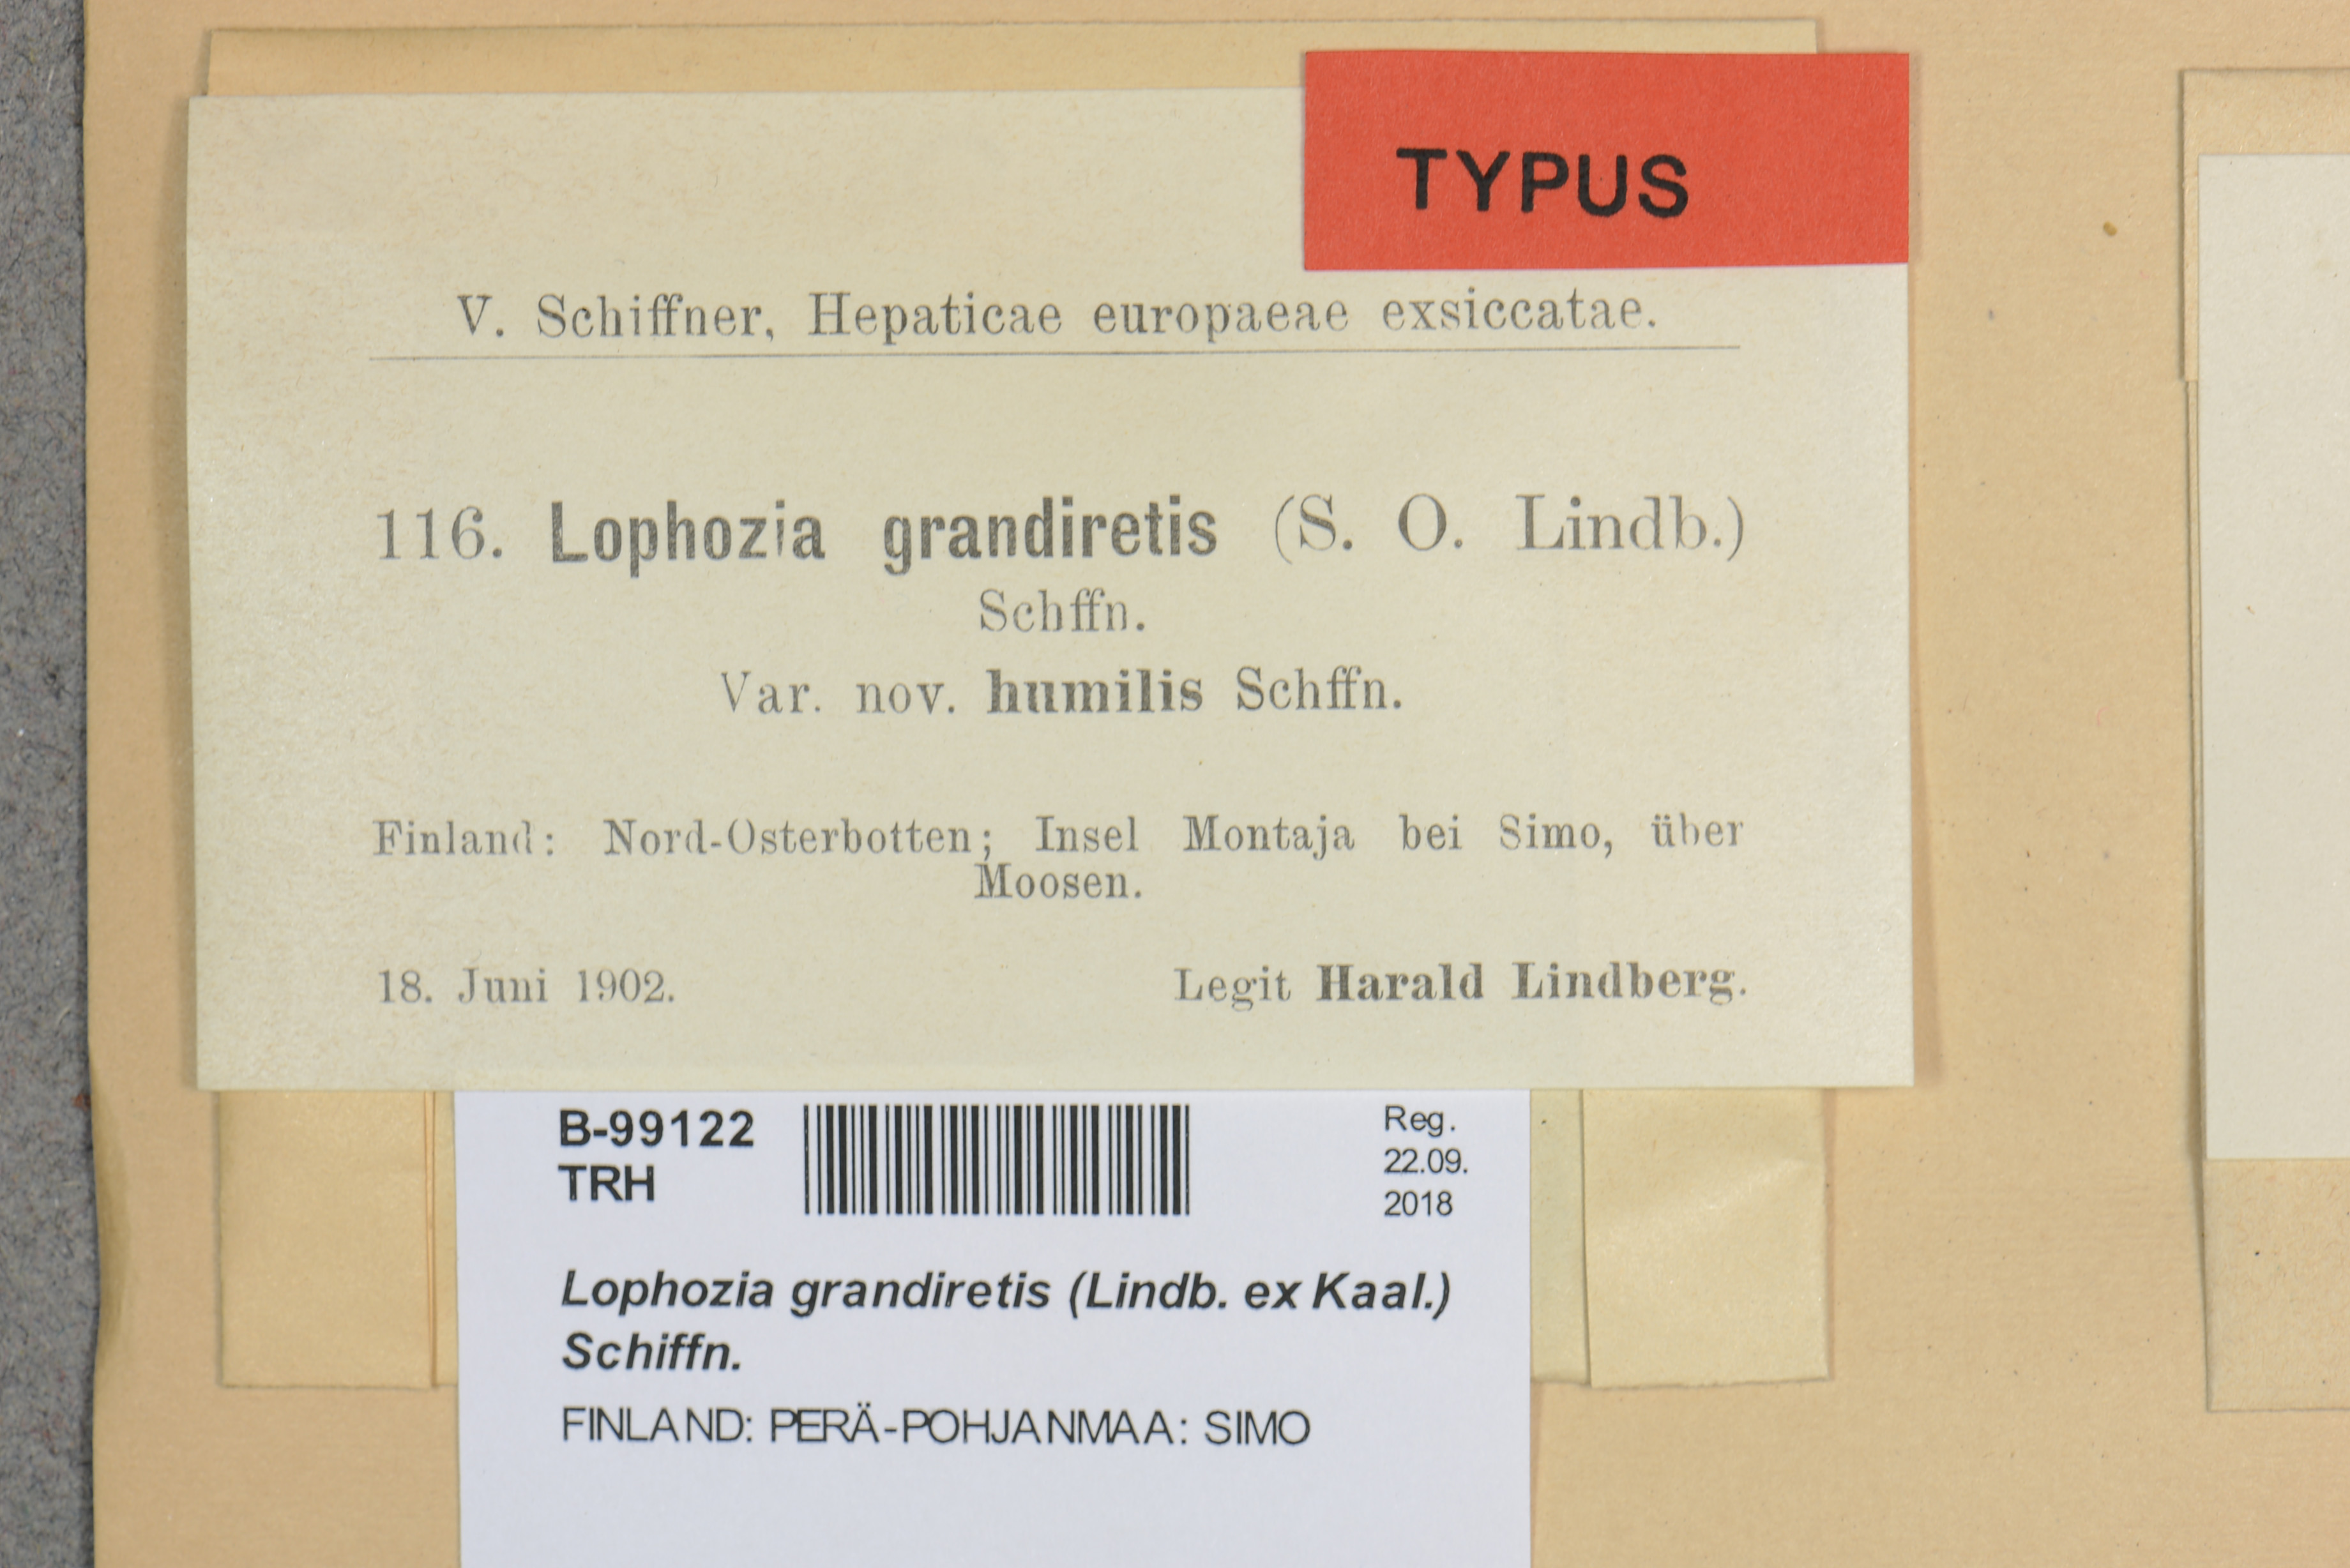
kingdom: Plantae
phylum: Marchantiophyta
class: Jungermanniopsida
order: Jungermanniales
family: Scapaniaceae
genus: Protochilopsis
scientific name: Protochilopsis grandiretis
